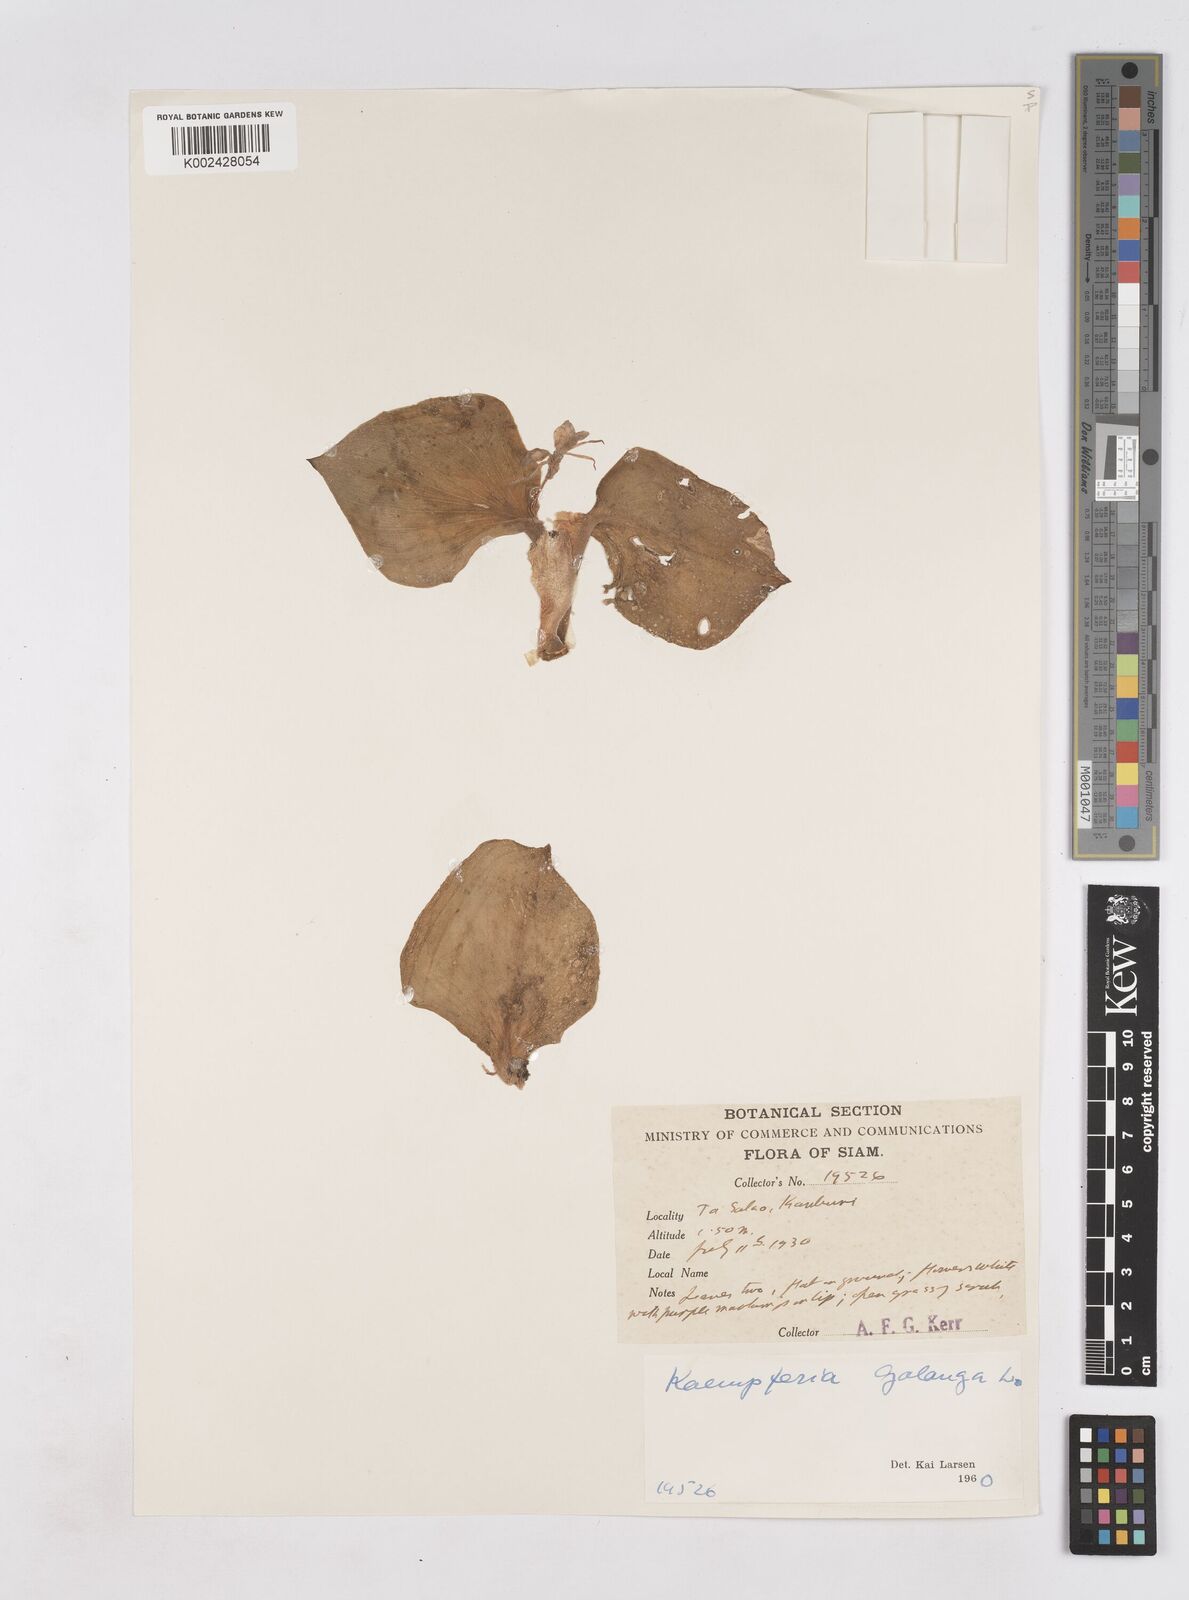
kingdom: Plantae
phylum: Tracheophyta
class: Liliopsida
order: Zingiberales
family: Zingiberaceae
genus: Kaempferia
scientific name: Kaempferia galanga
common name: Aromatic ginger
